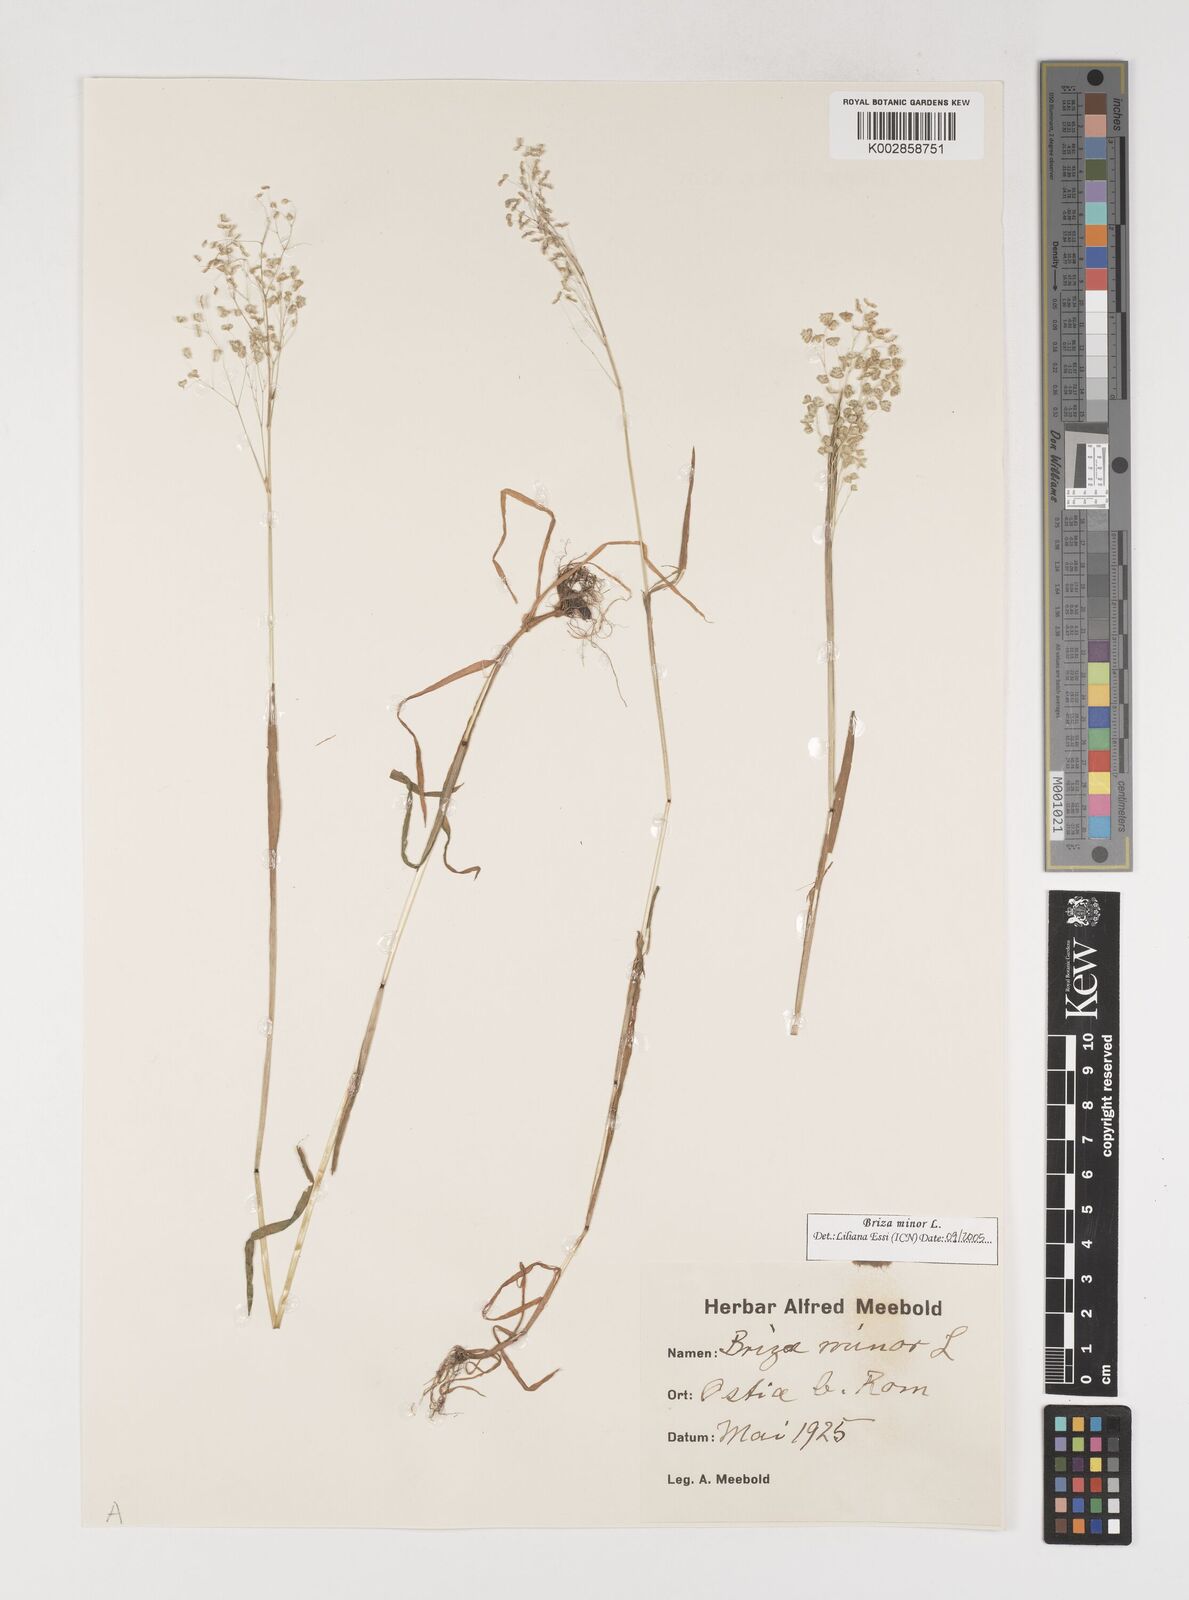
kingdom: Plantae
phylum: Tracheophyta
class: Liliopsida
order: Poales
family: Poaceae
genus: Briza
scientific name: Briza minor
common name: Lesser quaking-grass
